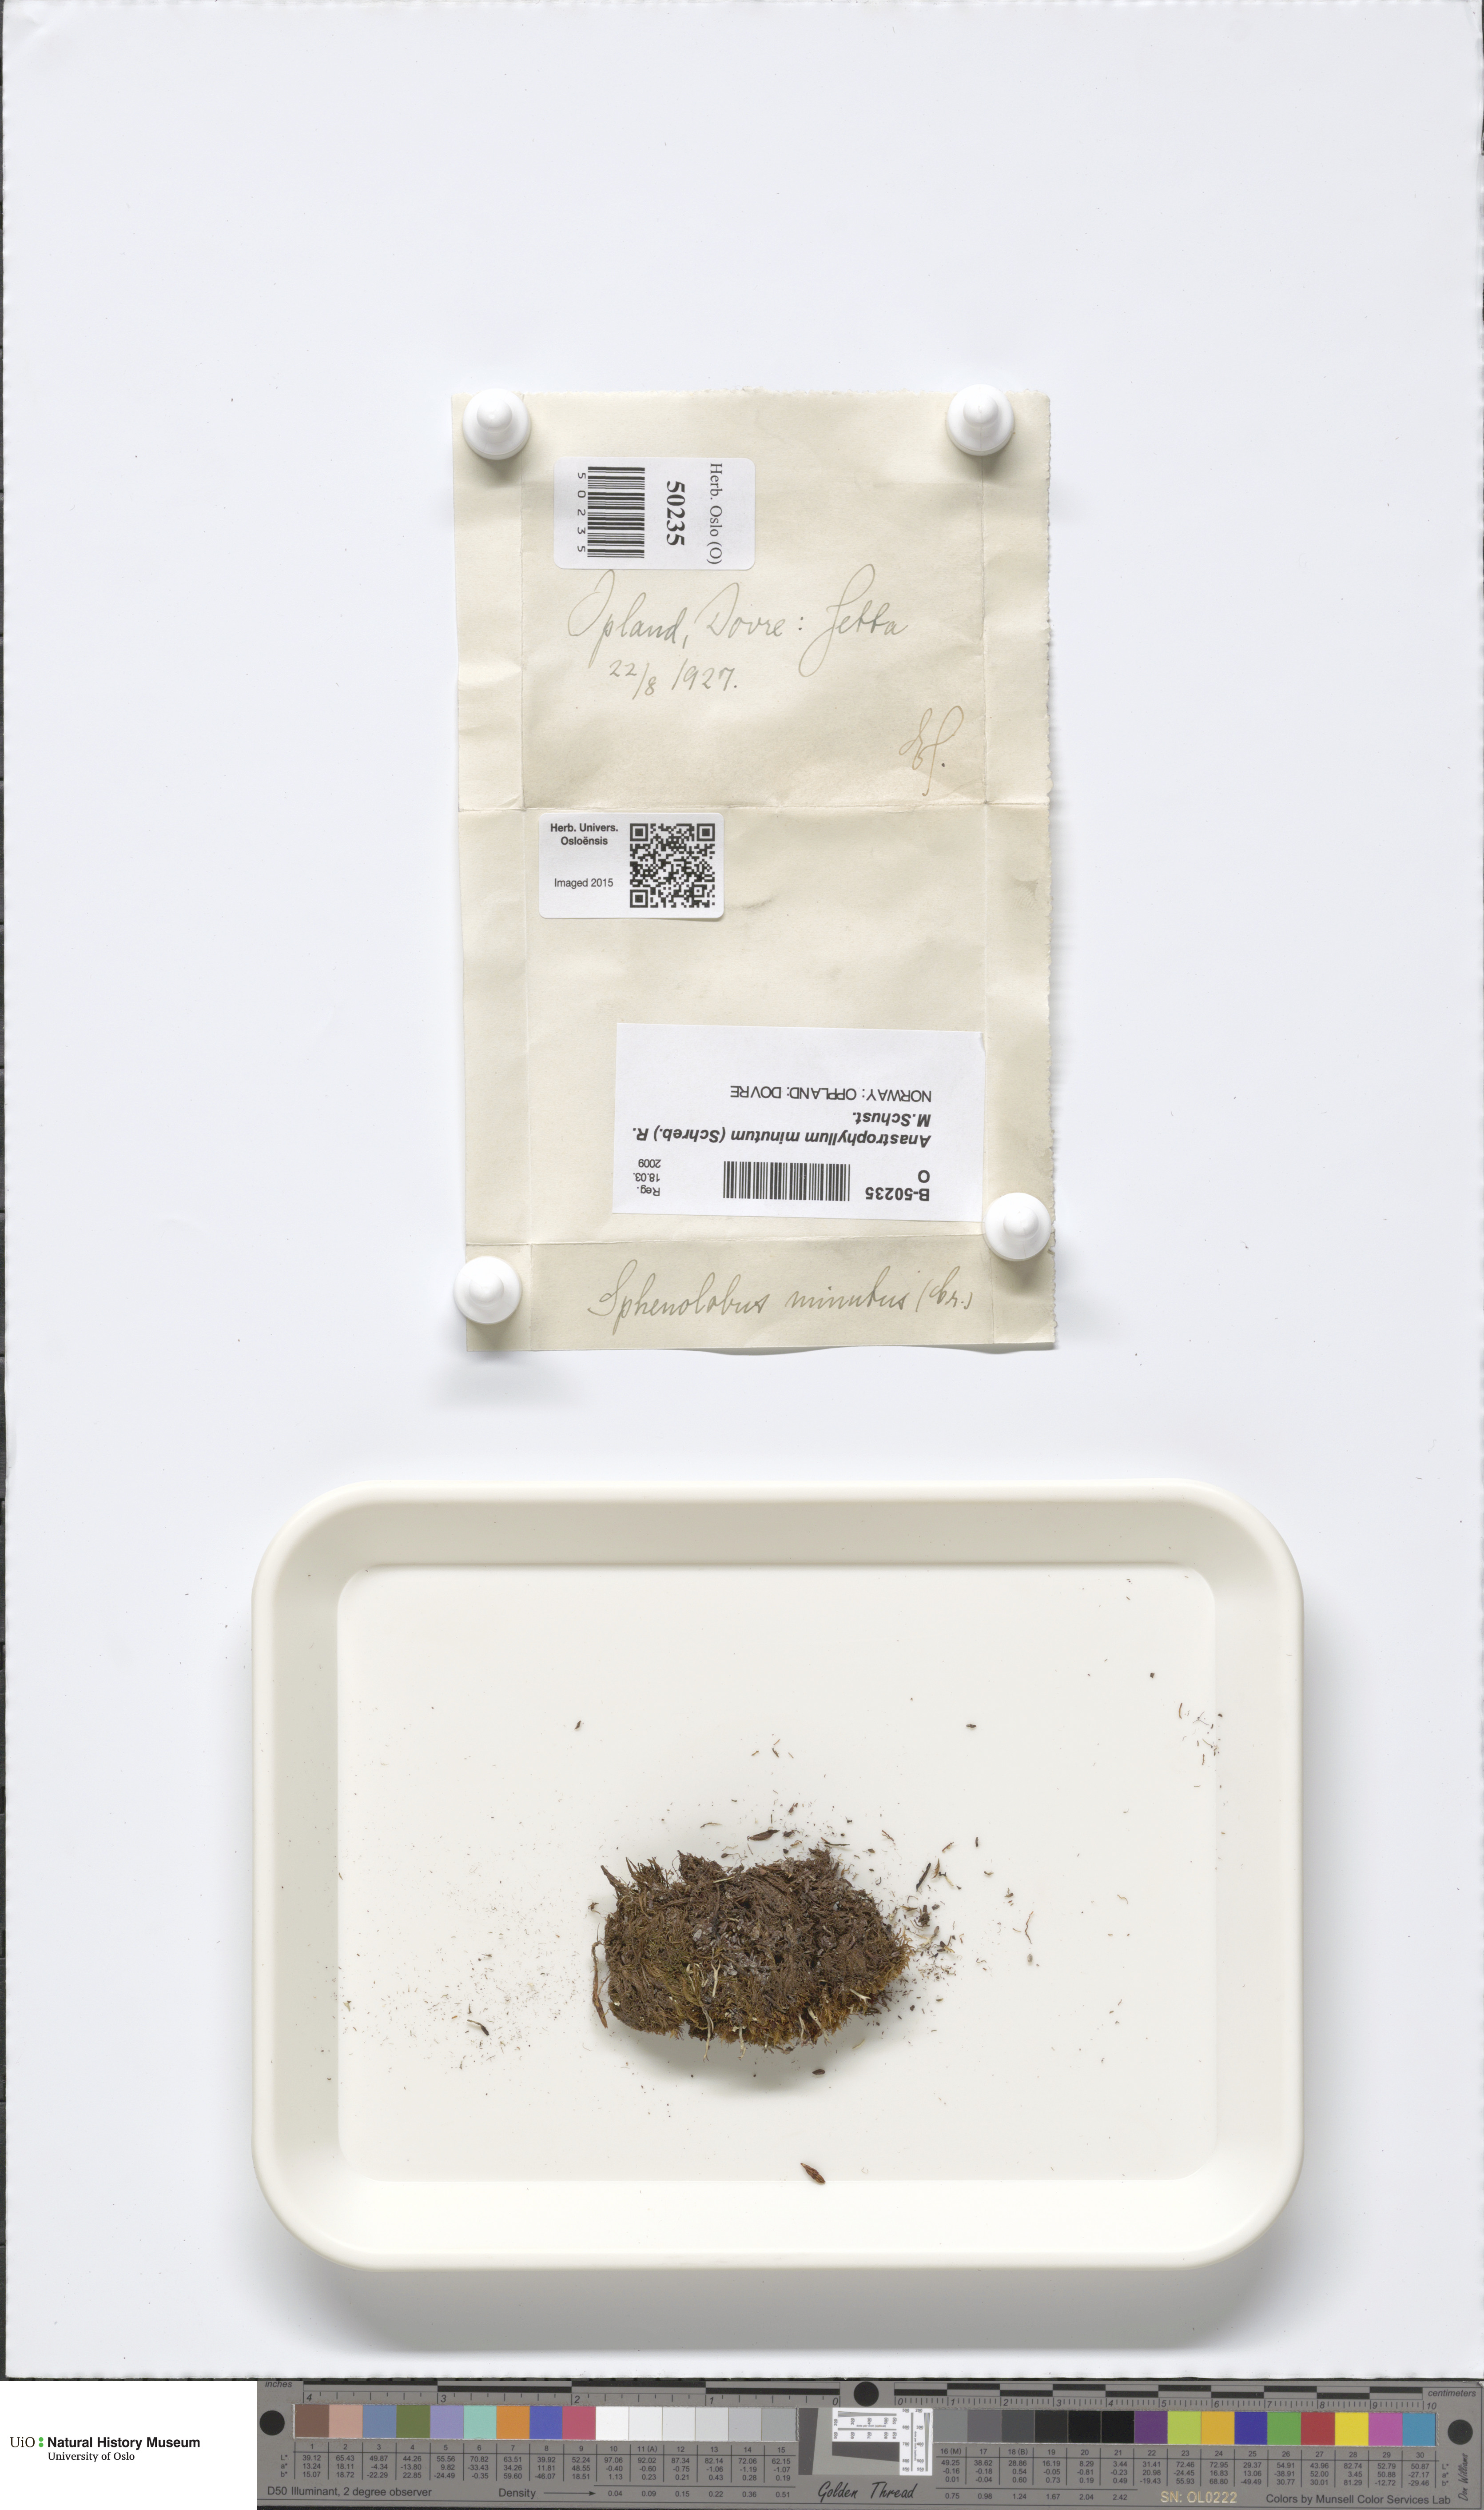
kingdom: Plantae
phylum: Marchantiophyta
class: Jungermanniopsida
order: Jungermanniales
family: Anastrophyllaceae
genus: Sphenolobus
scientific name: Sphenolobus minutus
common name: Comb notchwort
